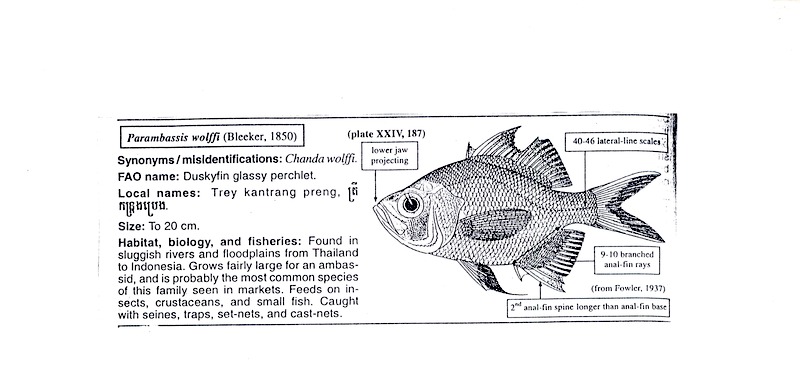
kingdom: Animalia
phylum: Chordata
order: Perciformes
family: Ambassidae
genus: Parambassis
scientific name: Parambassis wolffii
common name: Duskyfin glassy perchlet
